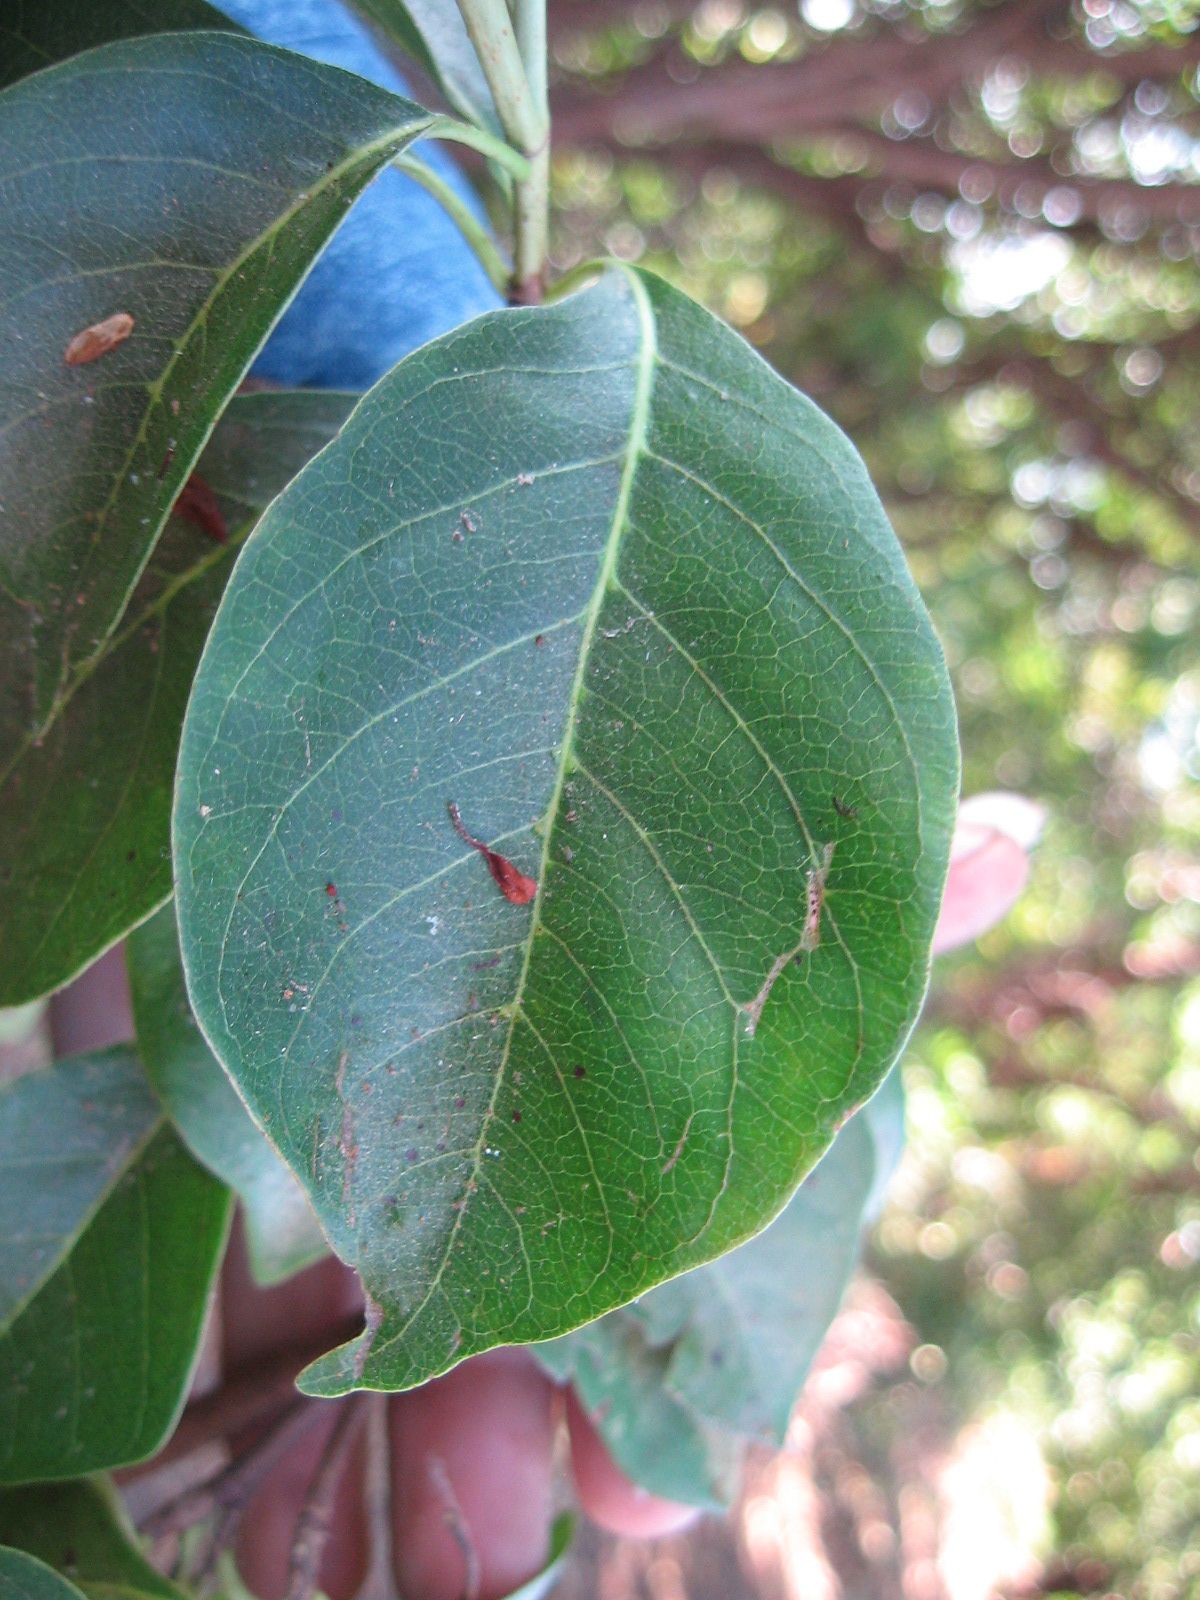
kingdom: Plantae
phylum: Tracheophyta
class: Magnoliopsida
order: Gentianales
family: Rubiaceae
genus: Calycophyllum
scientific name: Calycophyllum candidissimum
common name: Dagame
